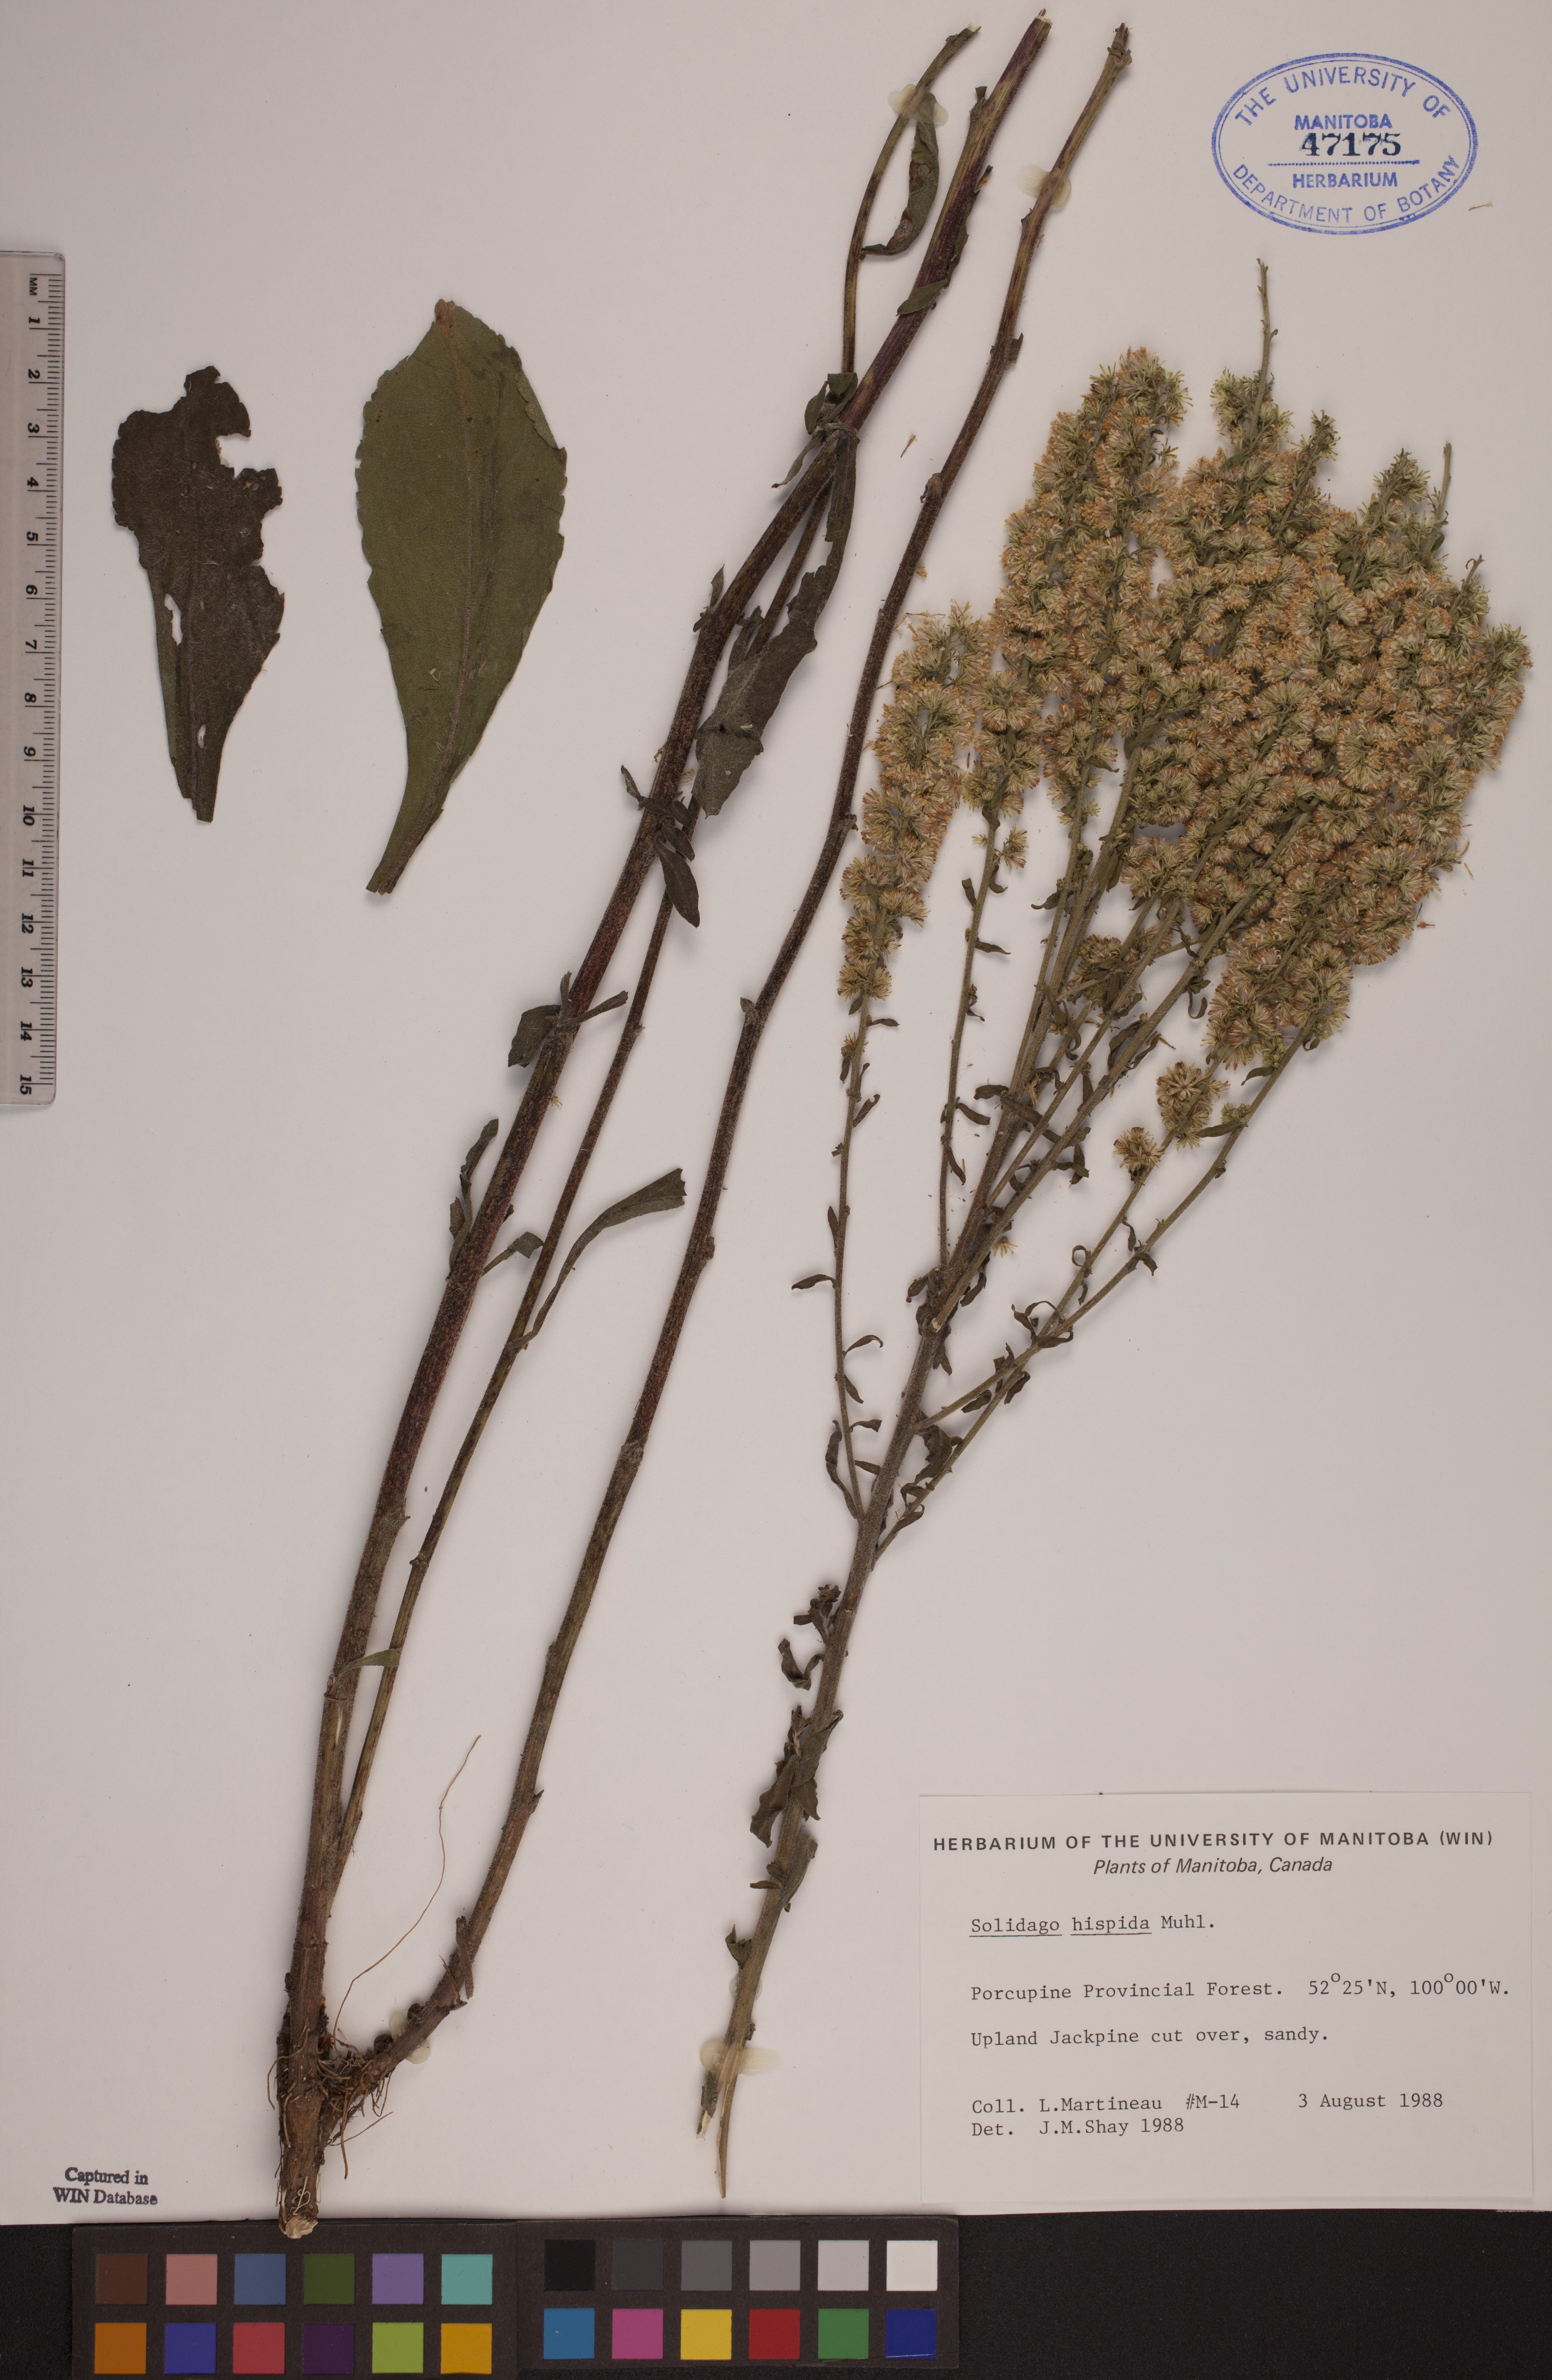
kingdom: Plantae
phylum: Tracheophyta
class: Magnoliopsida
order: Asterales
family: Asteraceae
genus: Solidago
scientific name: Solidago hispida
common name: Hairy goldenrod
